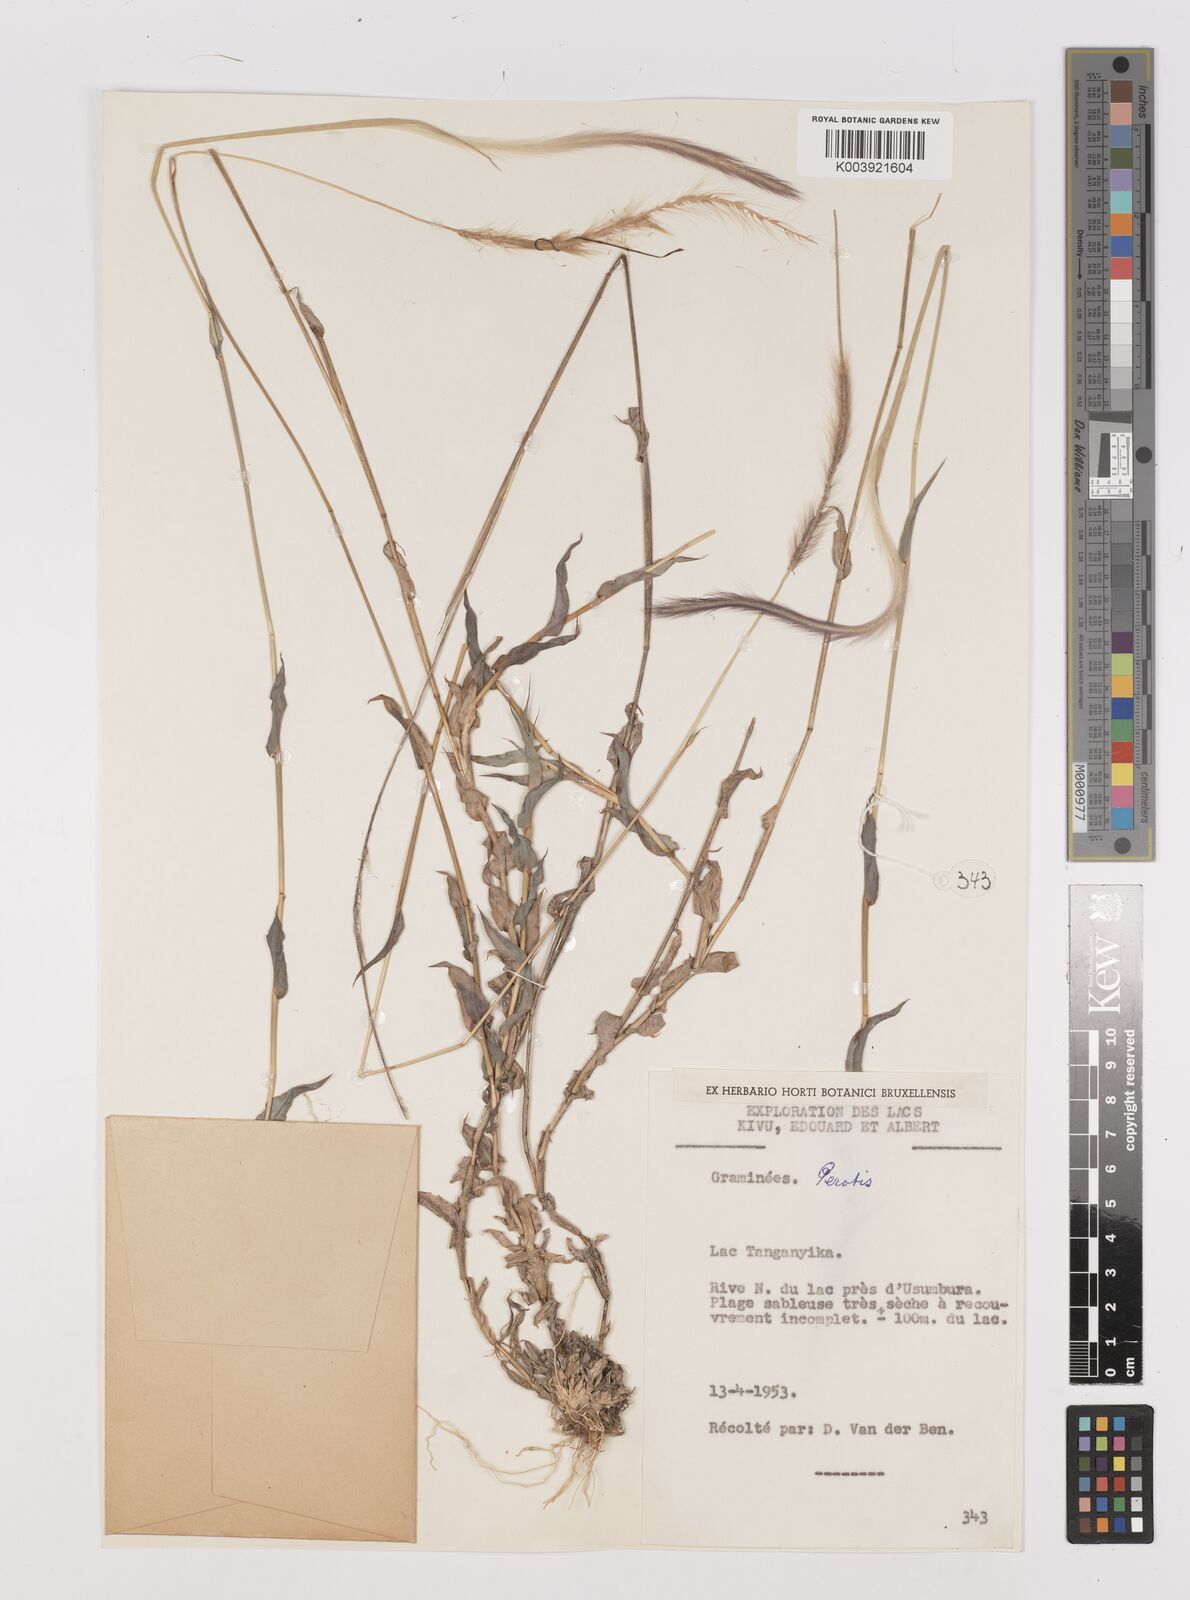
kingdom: Plantae
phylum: Tracheophyta
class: Liliopsida
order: Poales
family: Poaceae
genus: Perotis
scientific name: Perotis patens
